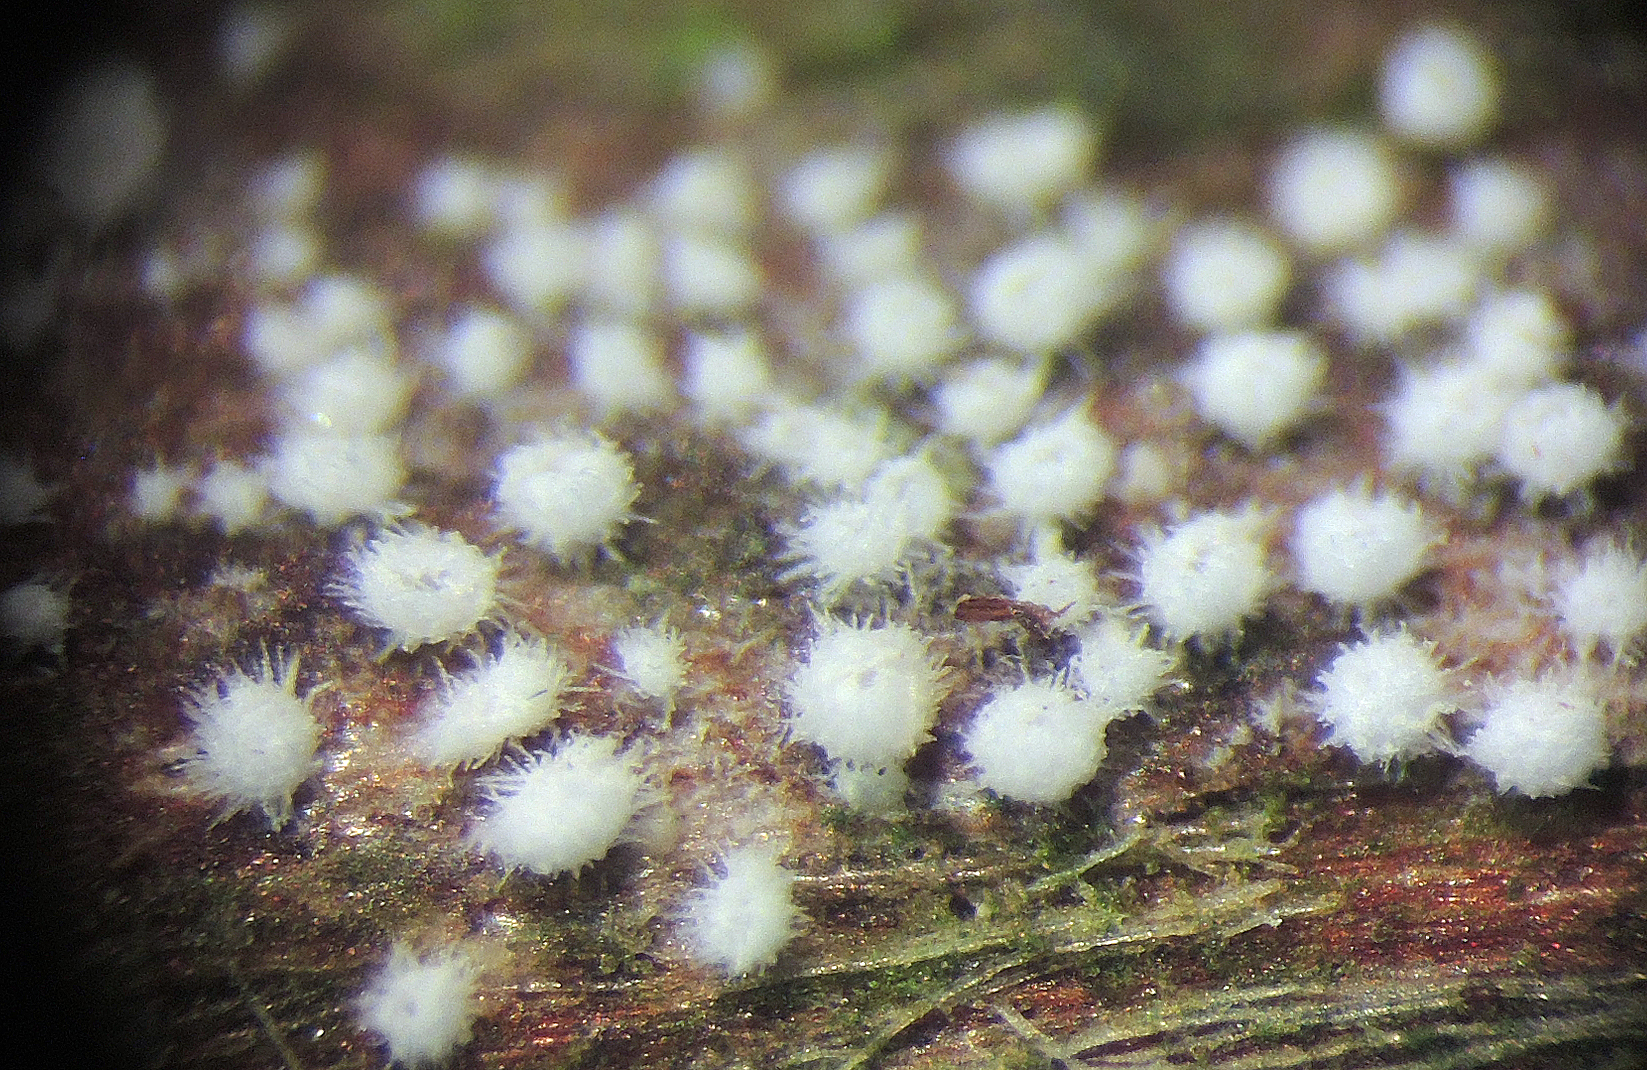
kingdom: Fungi
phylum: Basidiomycota
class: Agaricomycetes
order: Agaricales
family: Niaceae
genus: Flagelloscypha
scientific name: Flagelloscypha minutissima
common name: lille hængeskål
